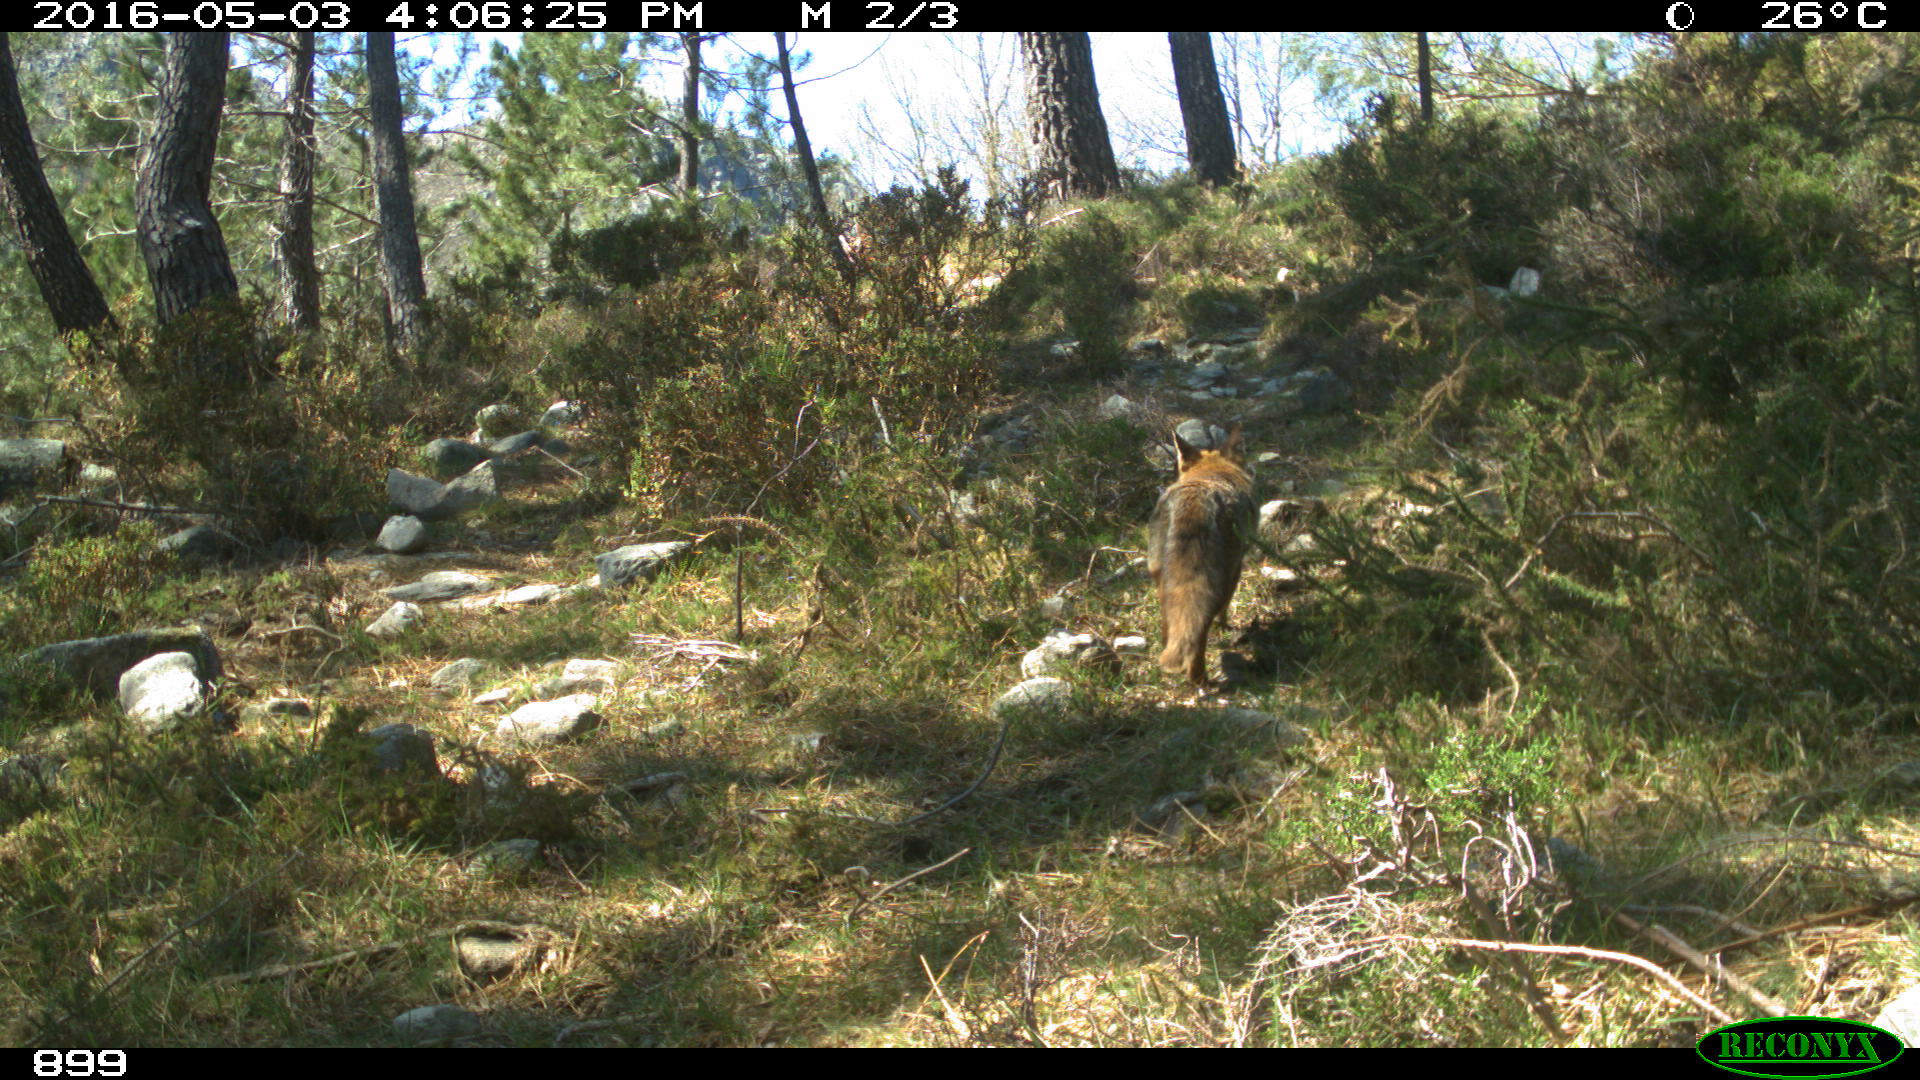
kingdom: Animalia
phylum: Chordata
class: Mammalia
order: Carnivora
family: Canidae
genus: Vulpes
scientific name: Vulpes vulpes
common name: Red fox
